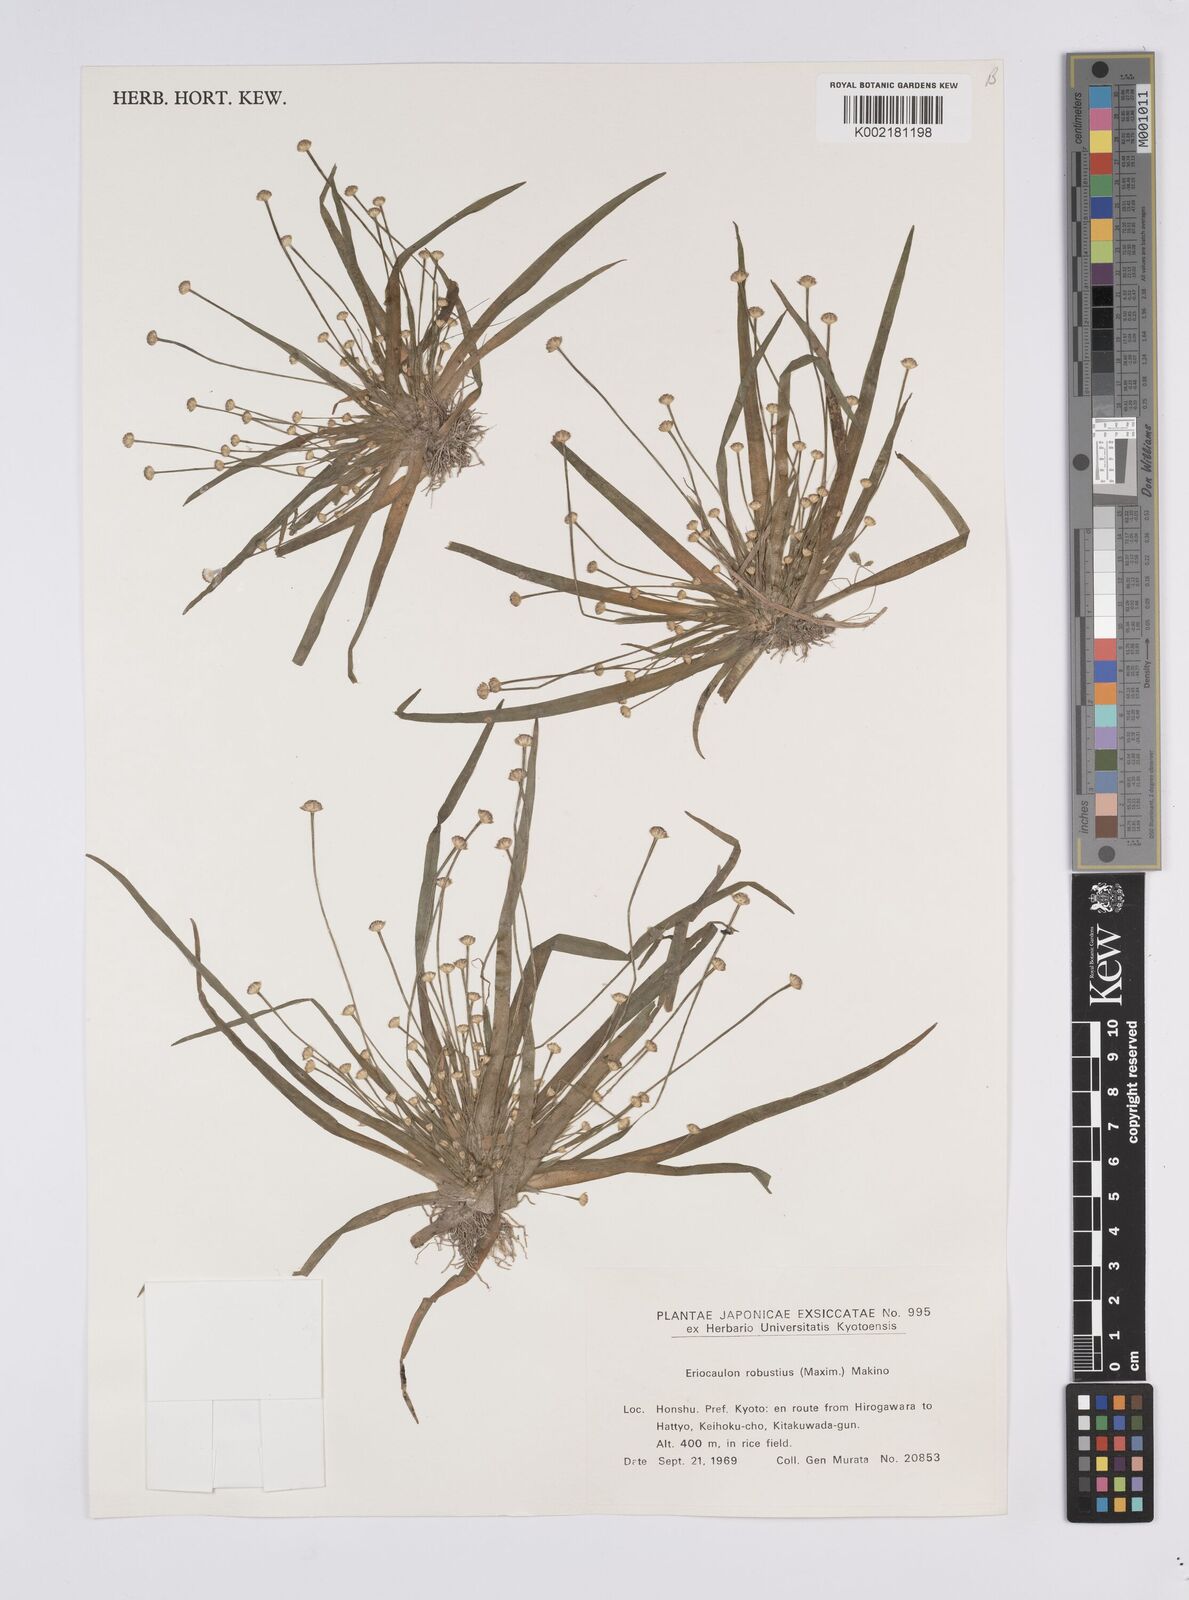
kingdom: Plantae
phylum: Tracheophyta
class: Liliopsida
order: Poales
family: Eriocaulaceae
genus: Eriocaulon
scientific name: Eriocaulon alpestre
